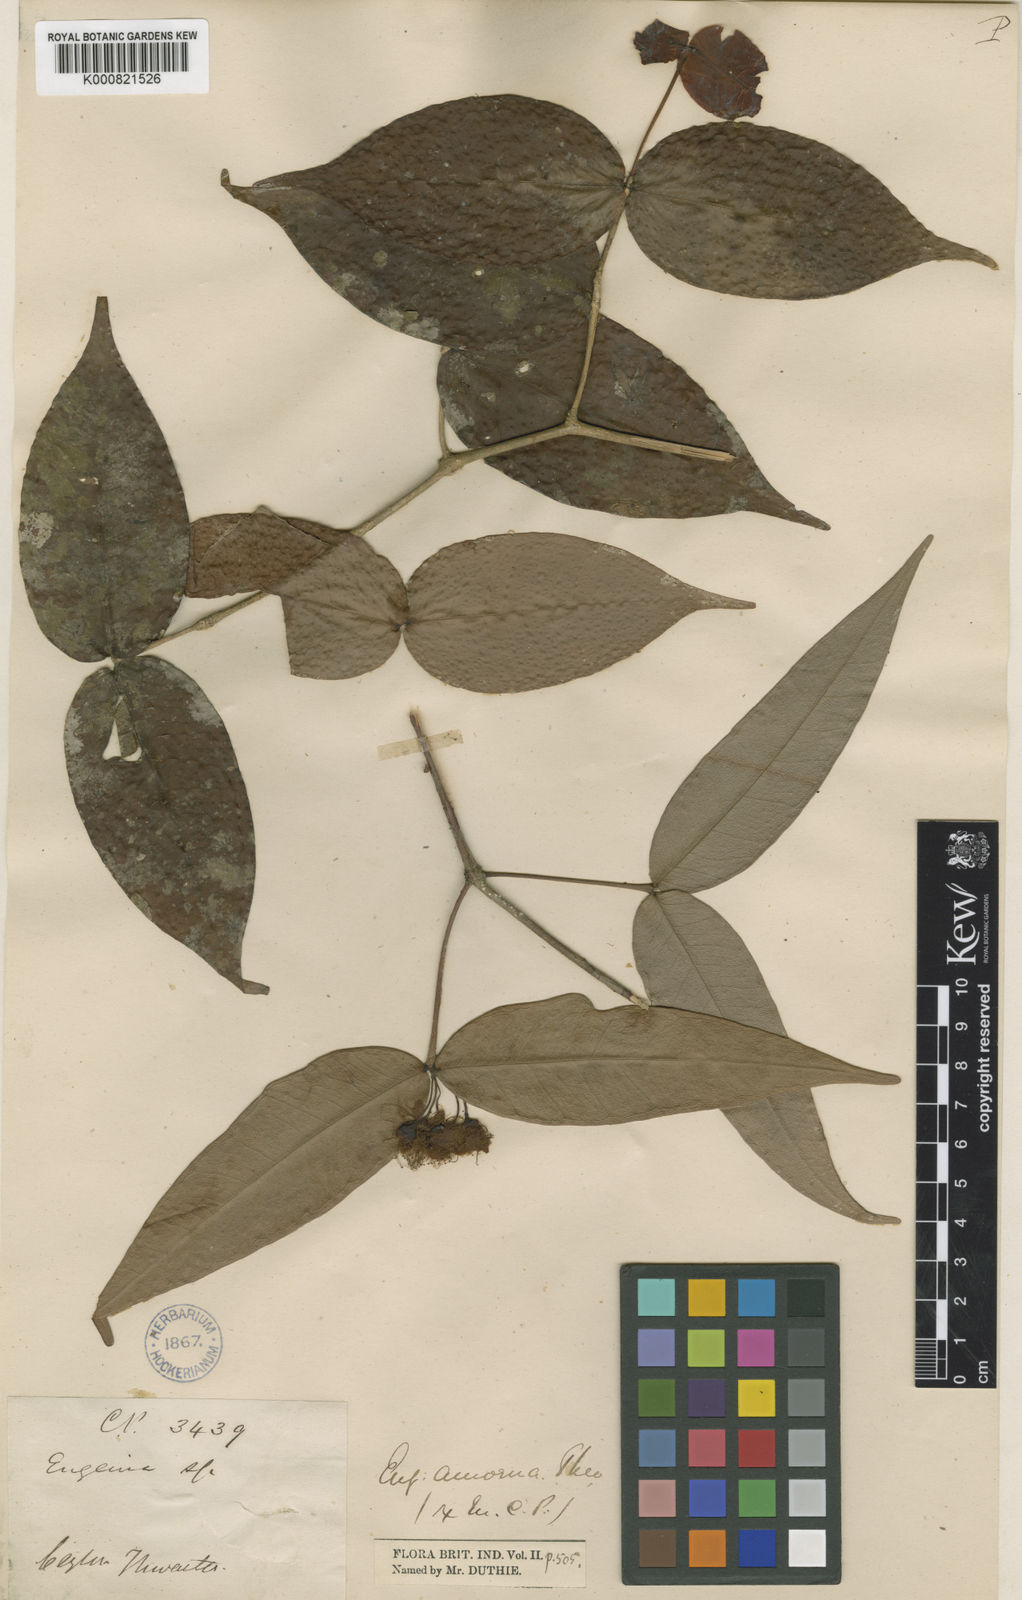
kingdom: Plantae
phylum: Tracheophyta
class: Magnoliopsida
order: Myrtales
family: Myrtaceae
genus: Eugenia
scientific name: Eugenia amoena
